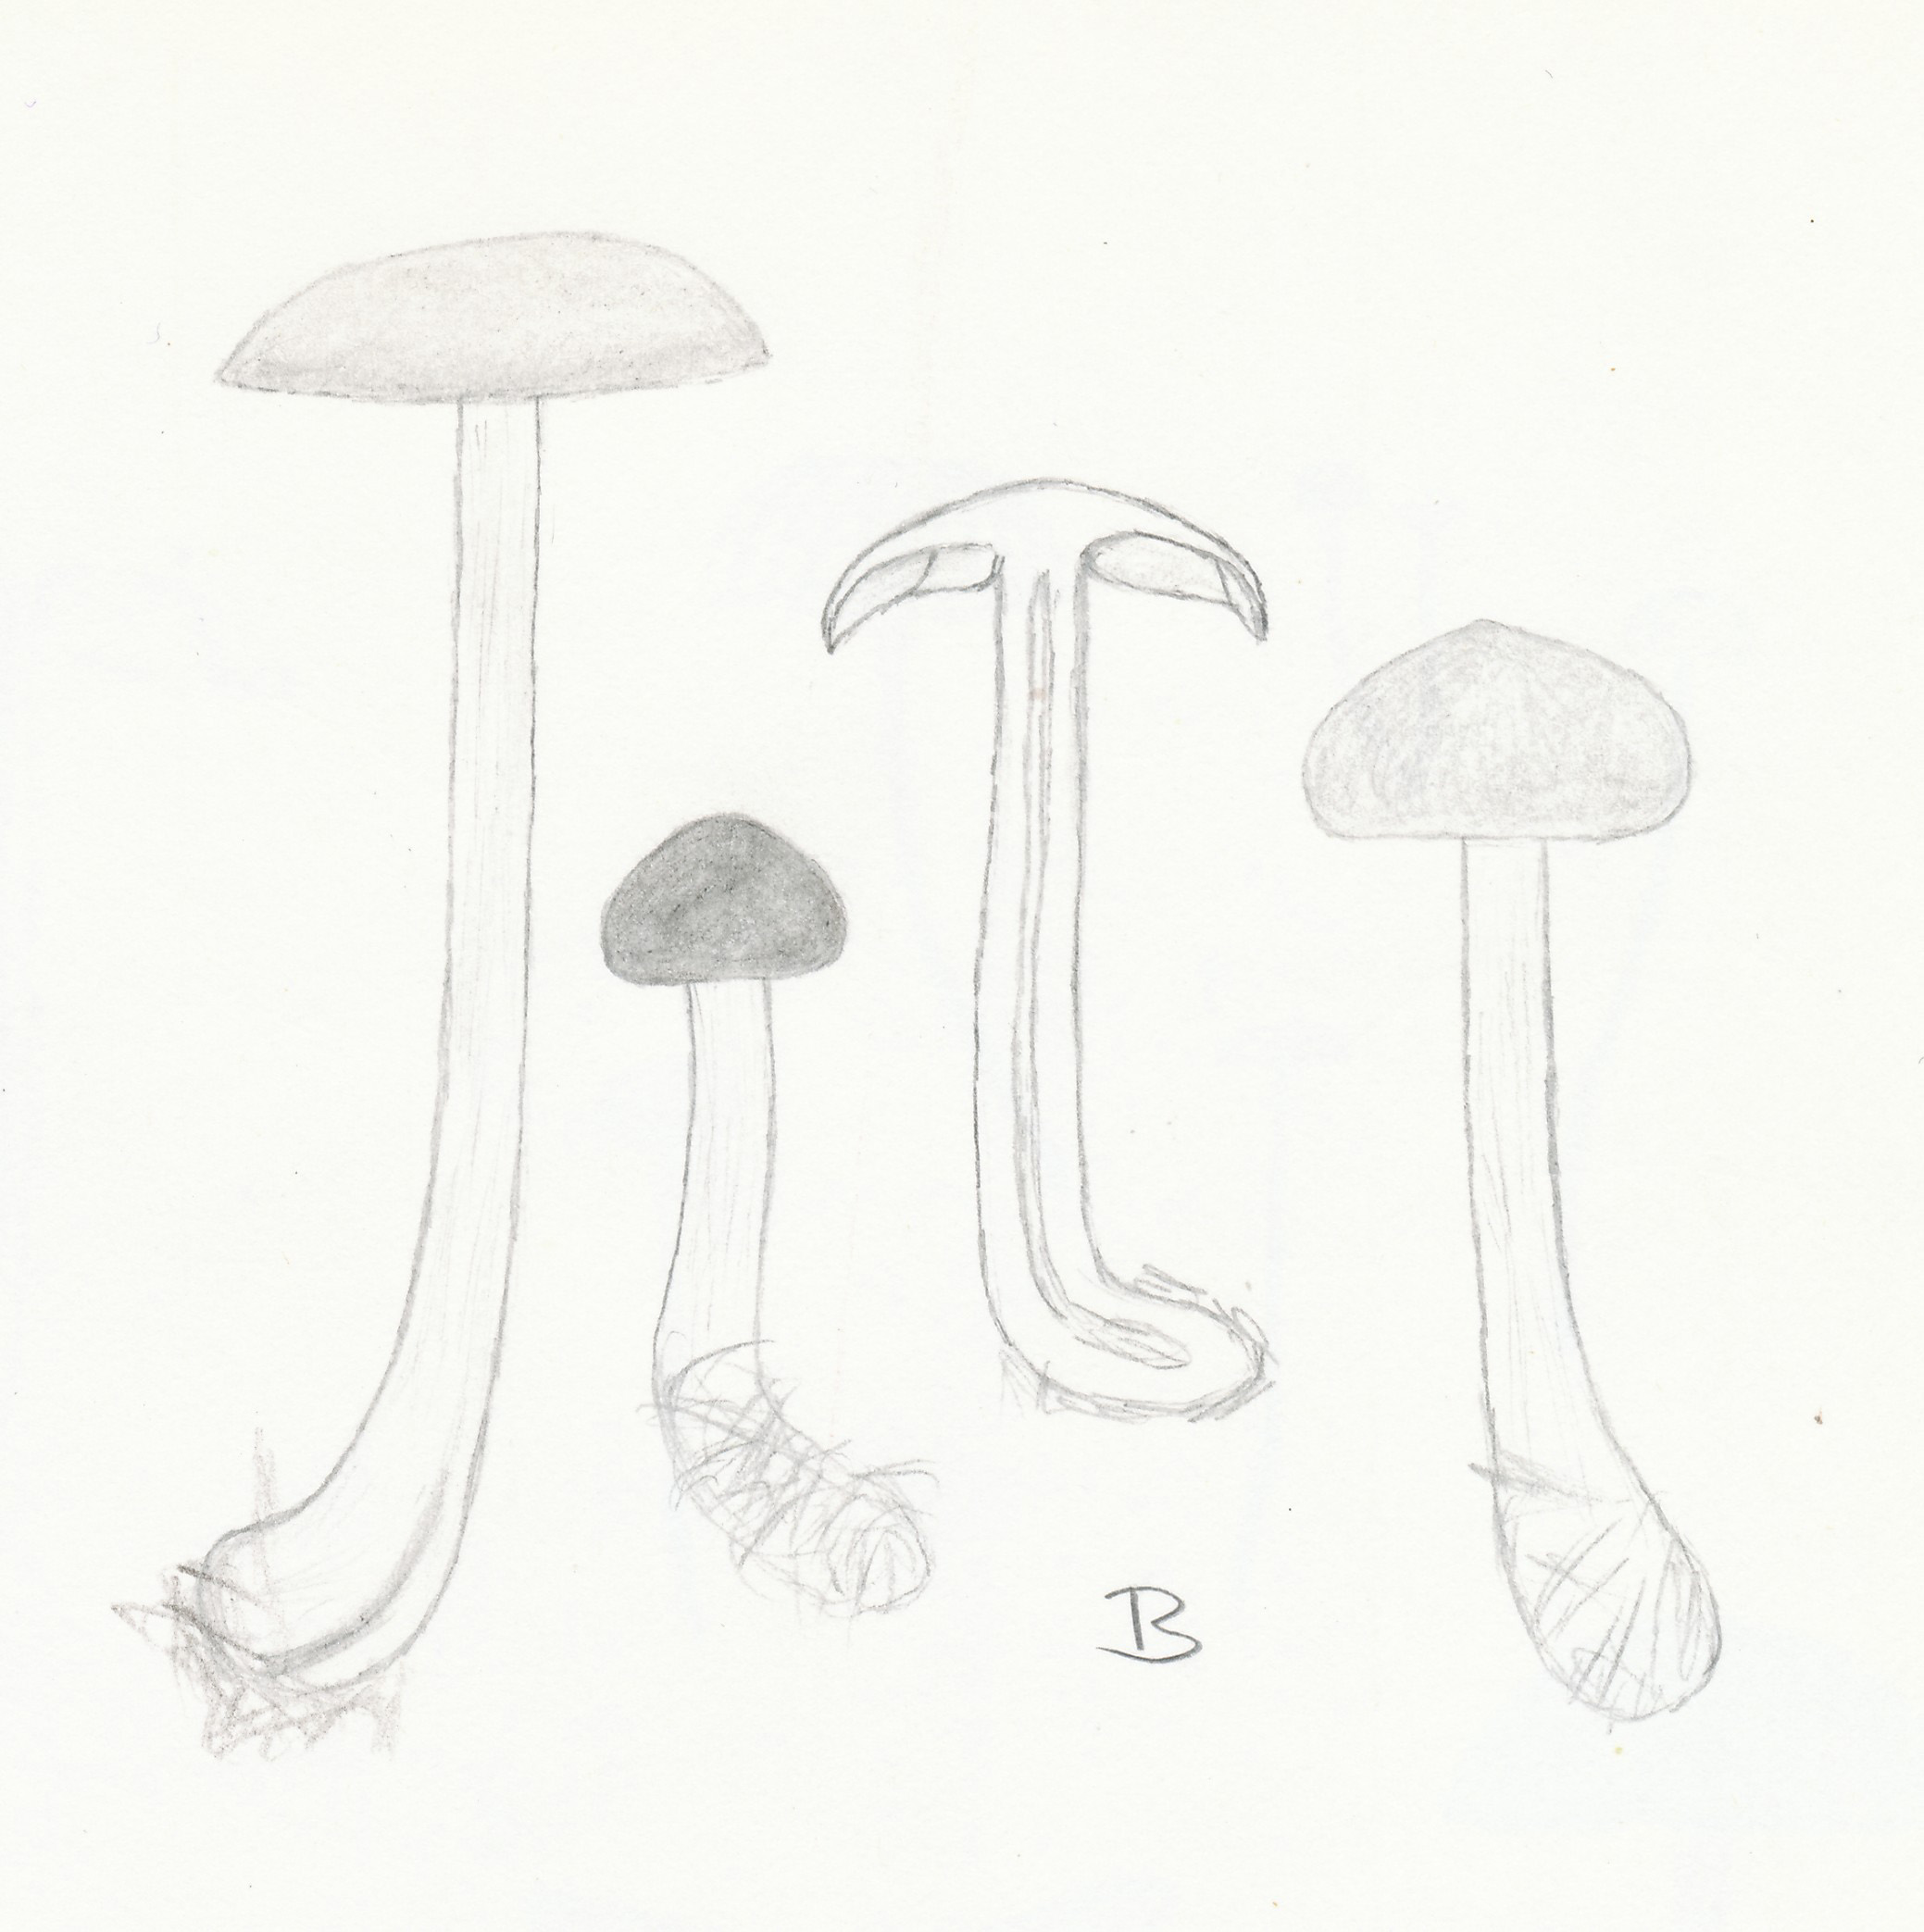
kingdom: Fungi
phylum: Basidiomycota
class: Agaricomycetes
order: Agaricales
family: Omphalotaceae
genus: Gymnopus
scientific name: Gymnopus aquosus
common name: bleg fladhat
